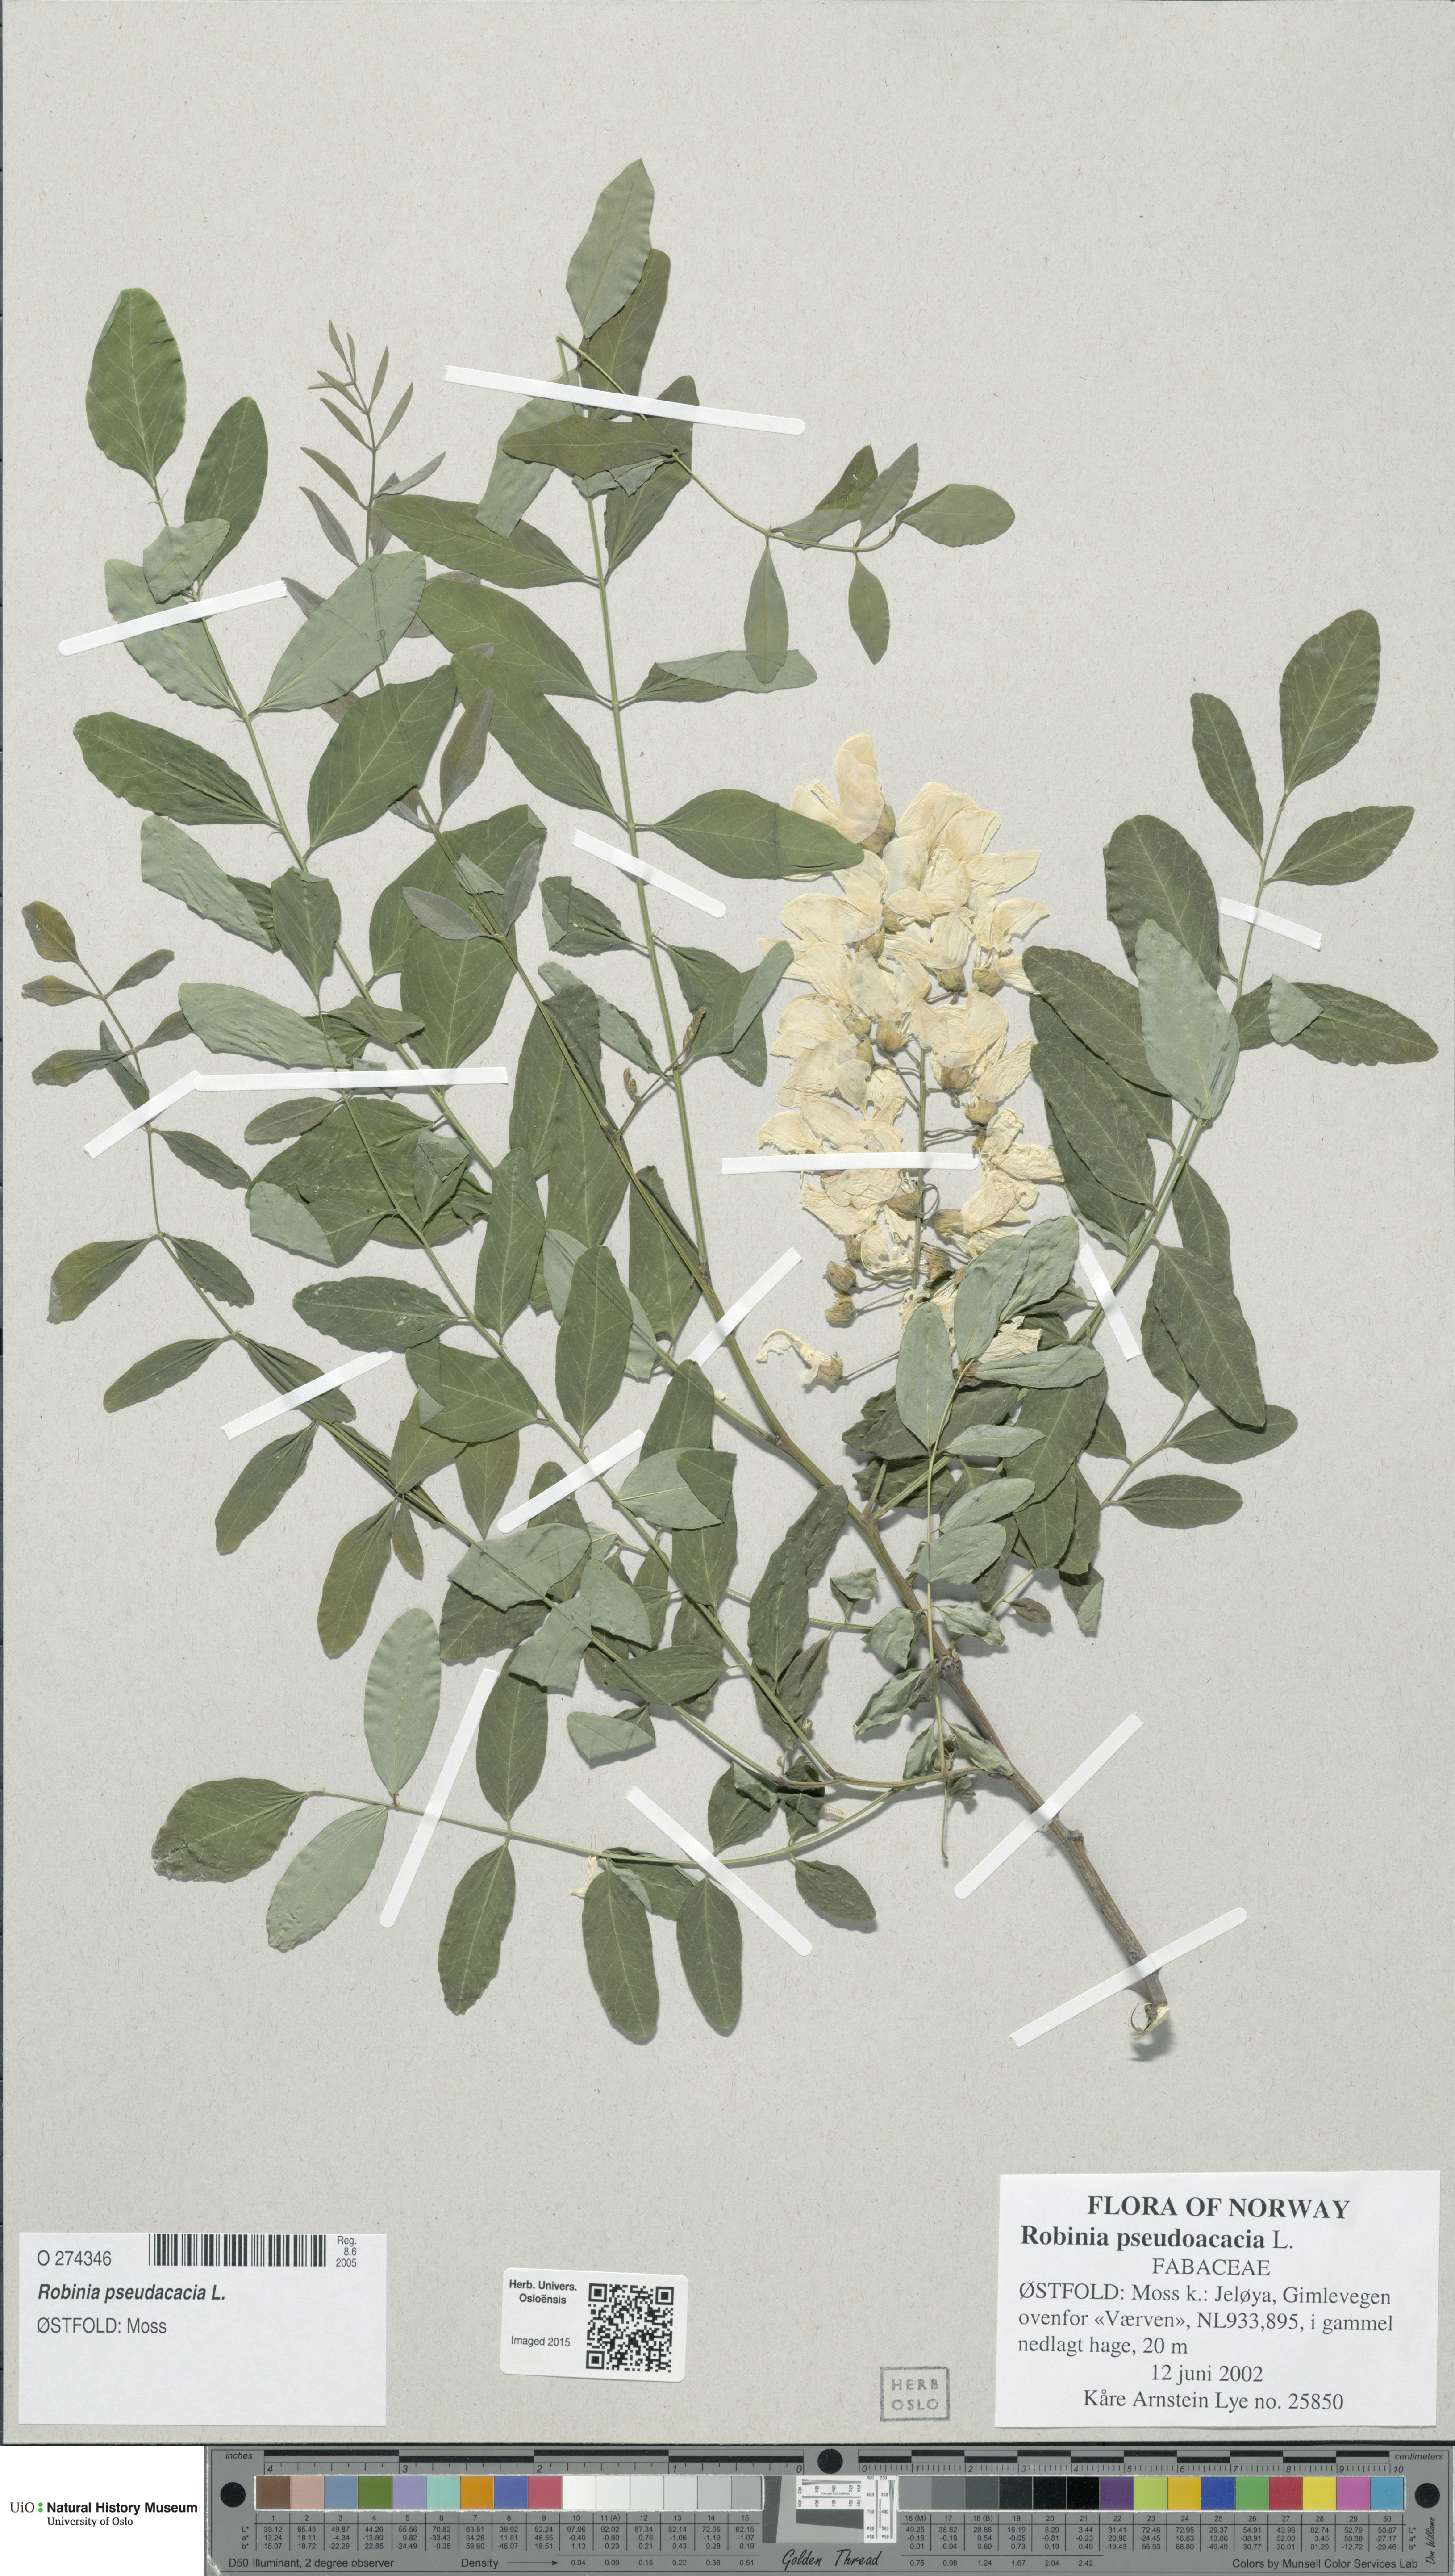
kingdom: Plantae
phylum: Tracheophyta
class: Magnoliopsida
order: Fabales
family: Fabaceae
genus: Robinia
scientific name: Robinia pseudoacacia
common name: Black locust
